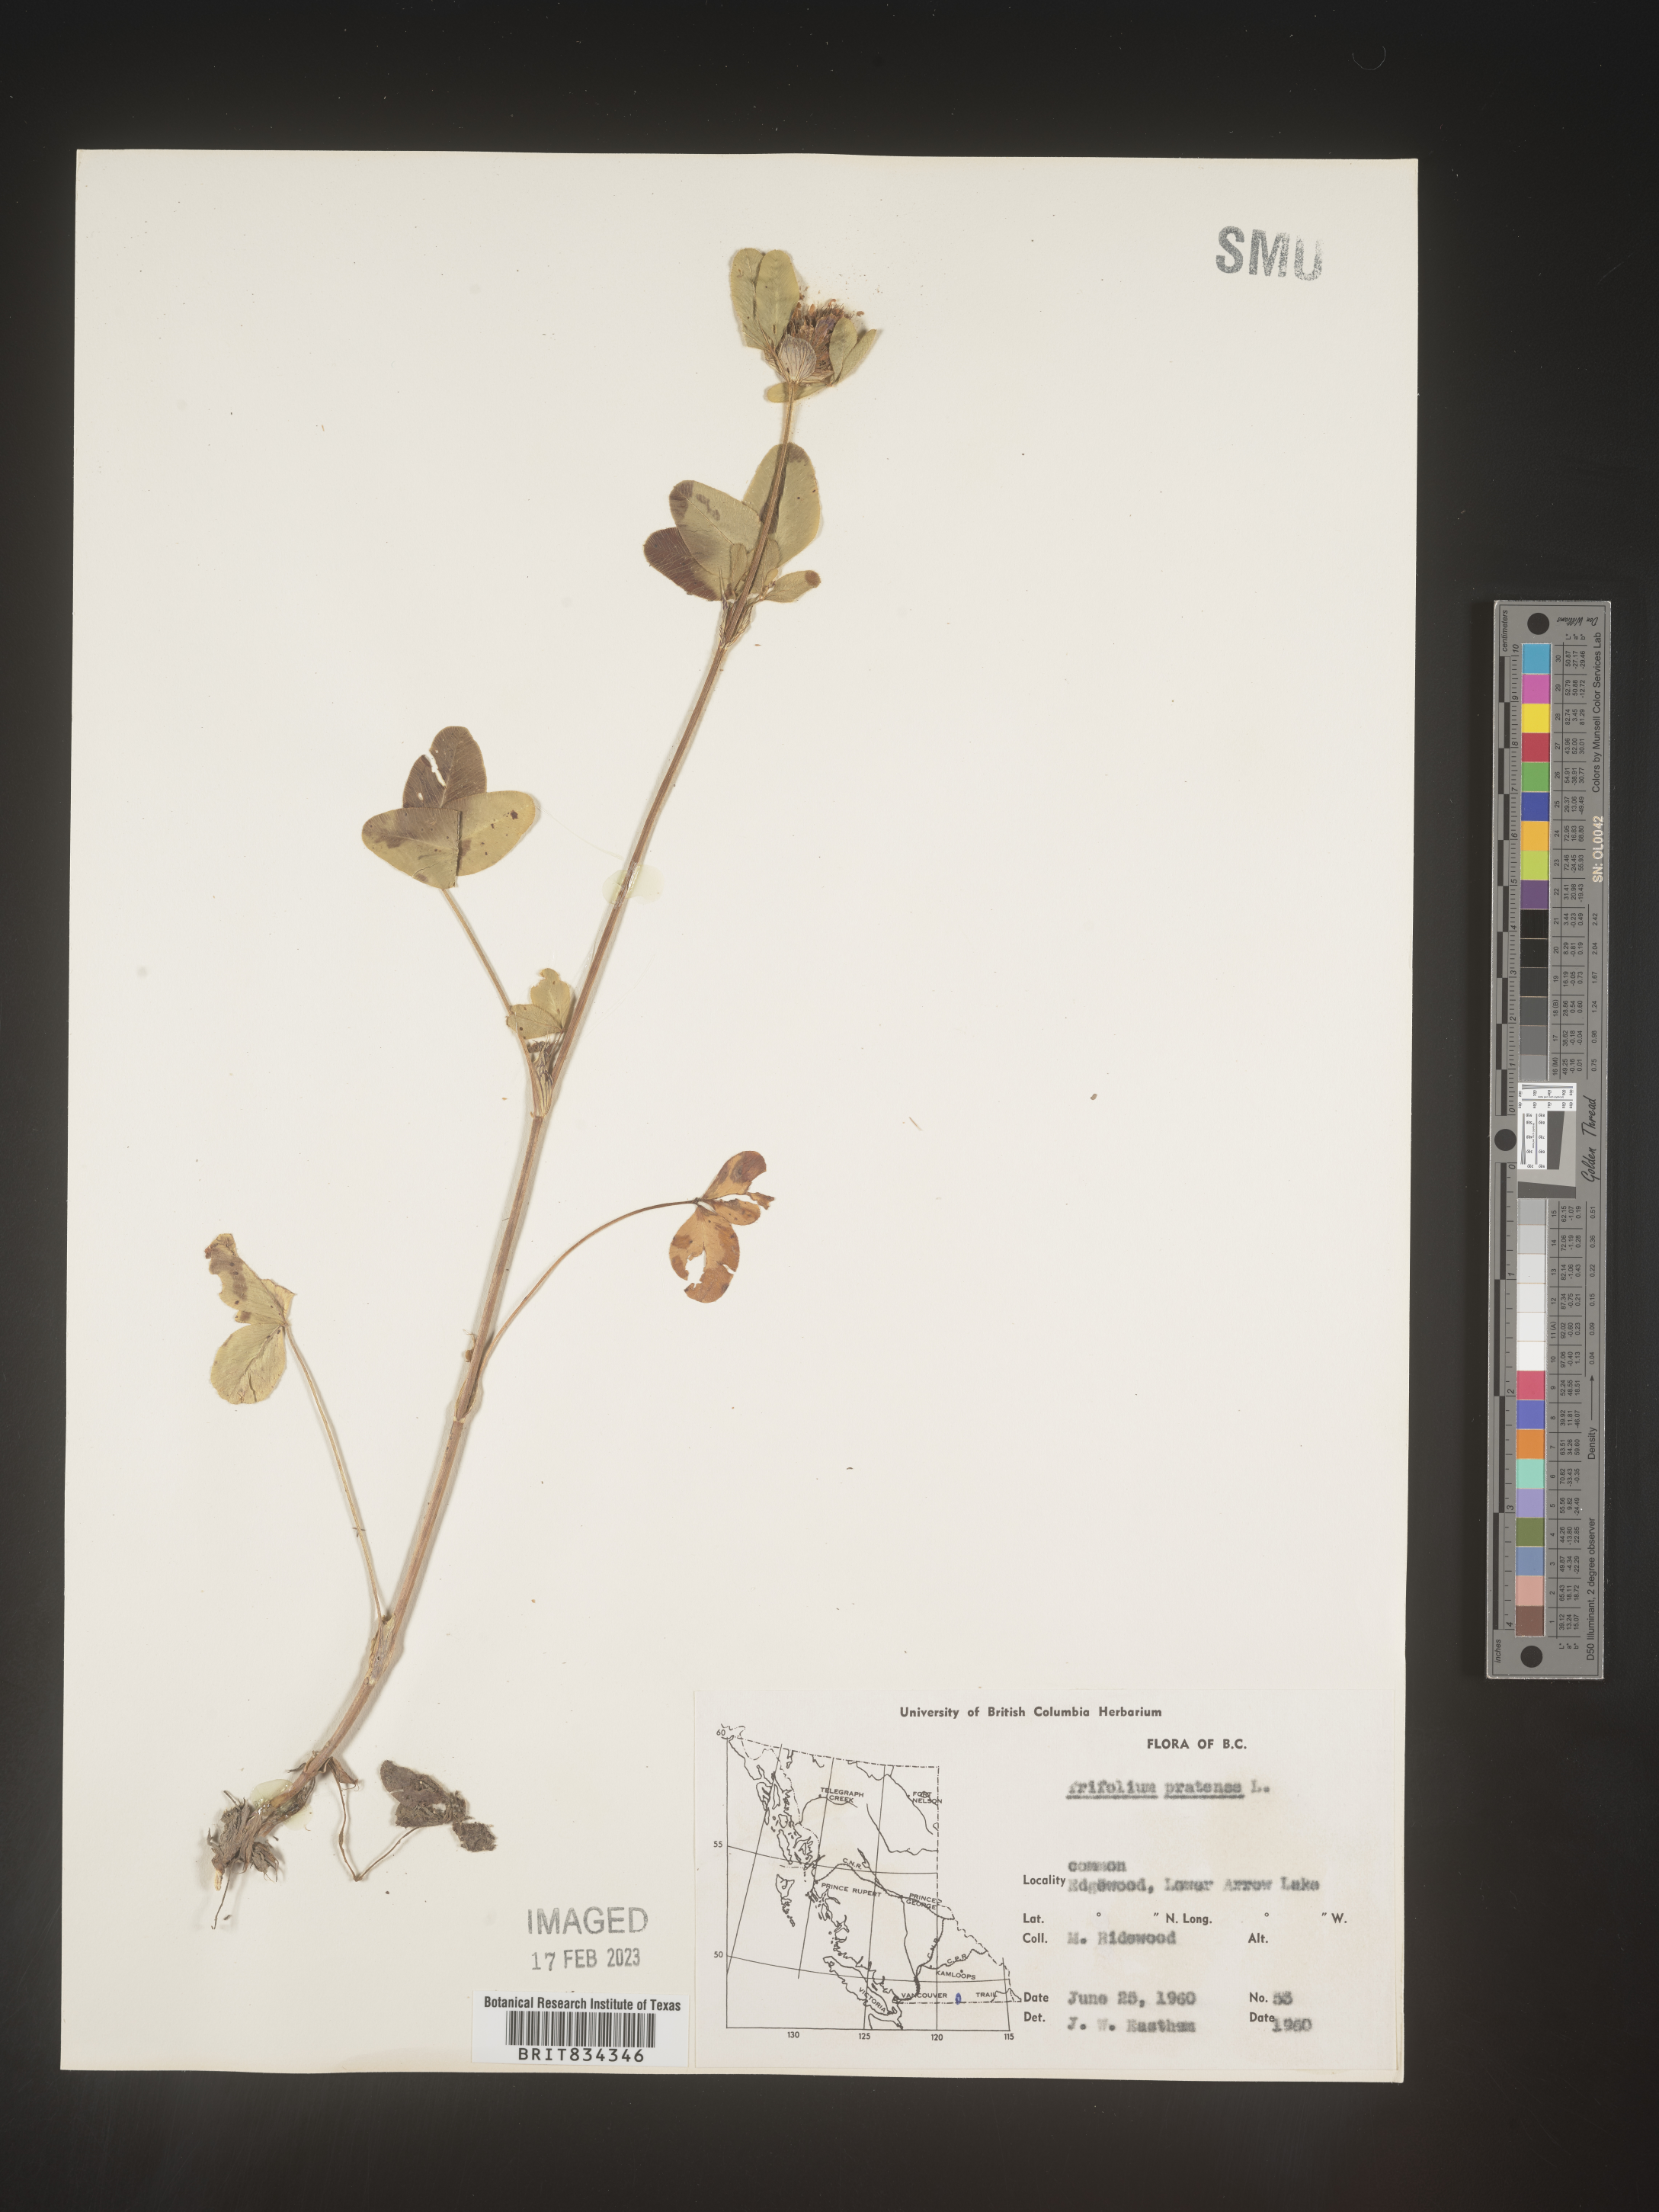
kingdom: Plantae
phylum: Tracheophyta
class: Magnoliopsida
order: Fabales
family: Fabaceae
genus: Trifolium
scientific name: Trifolium pratense
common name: Red clover
